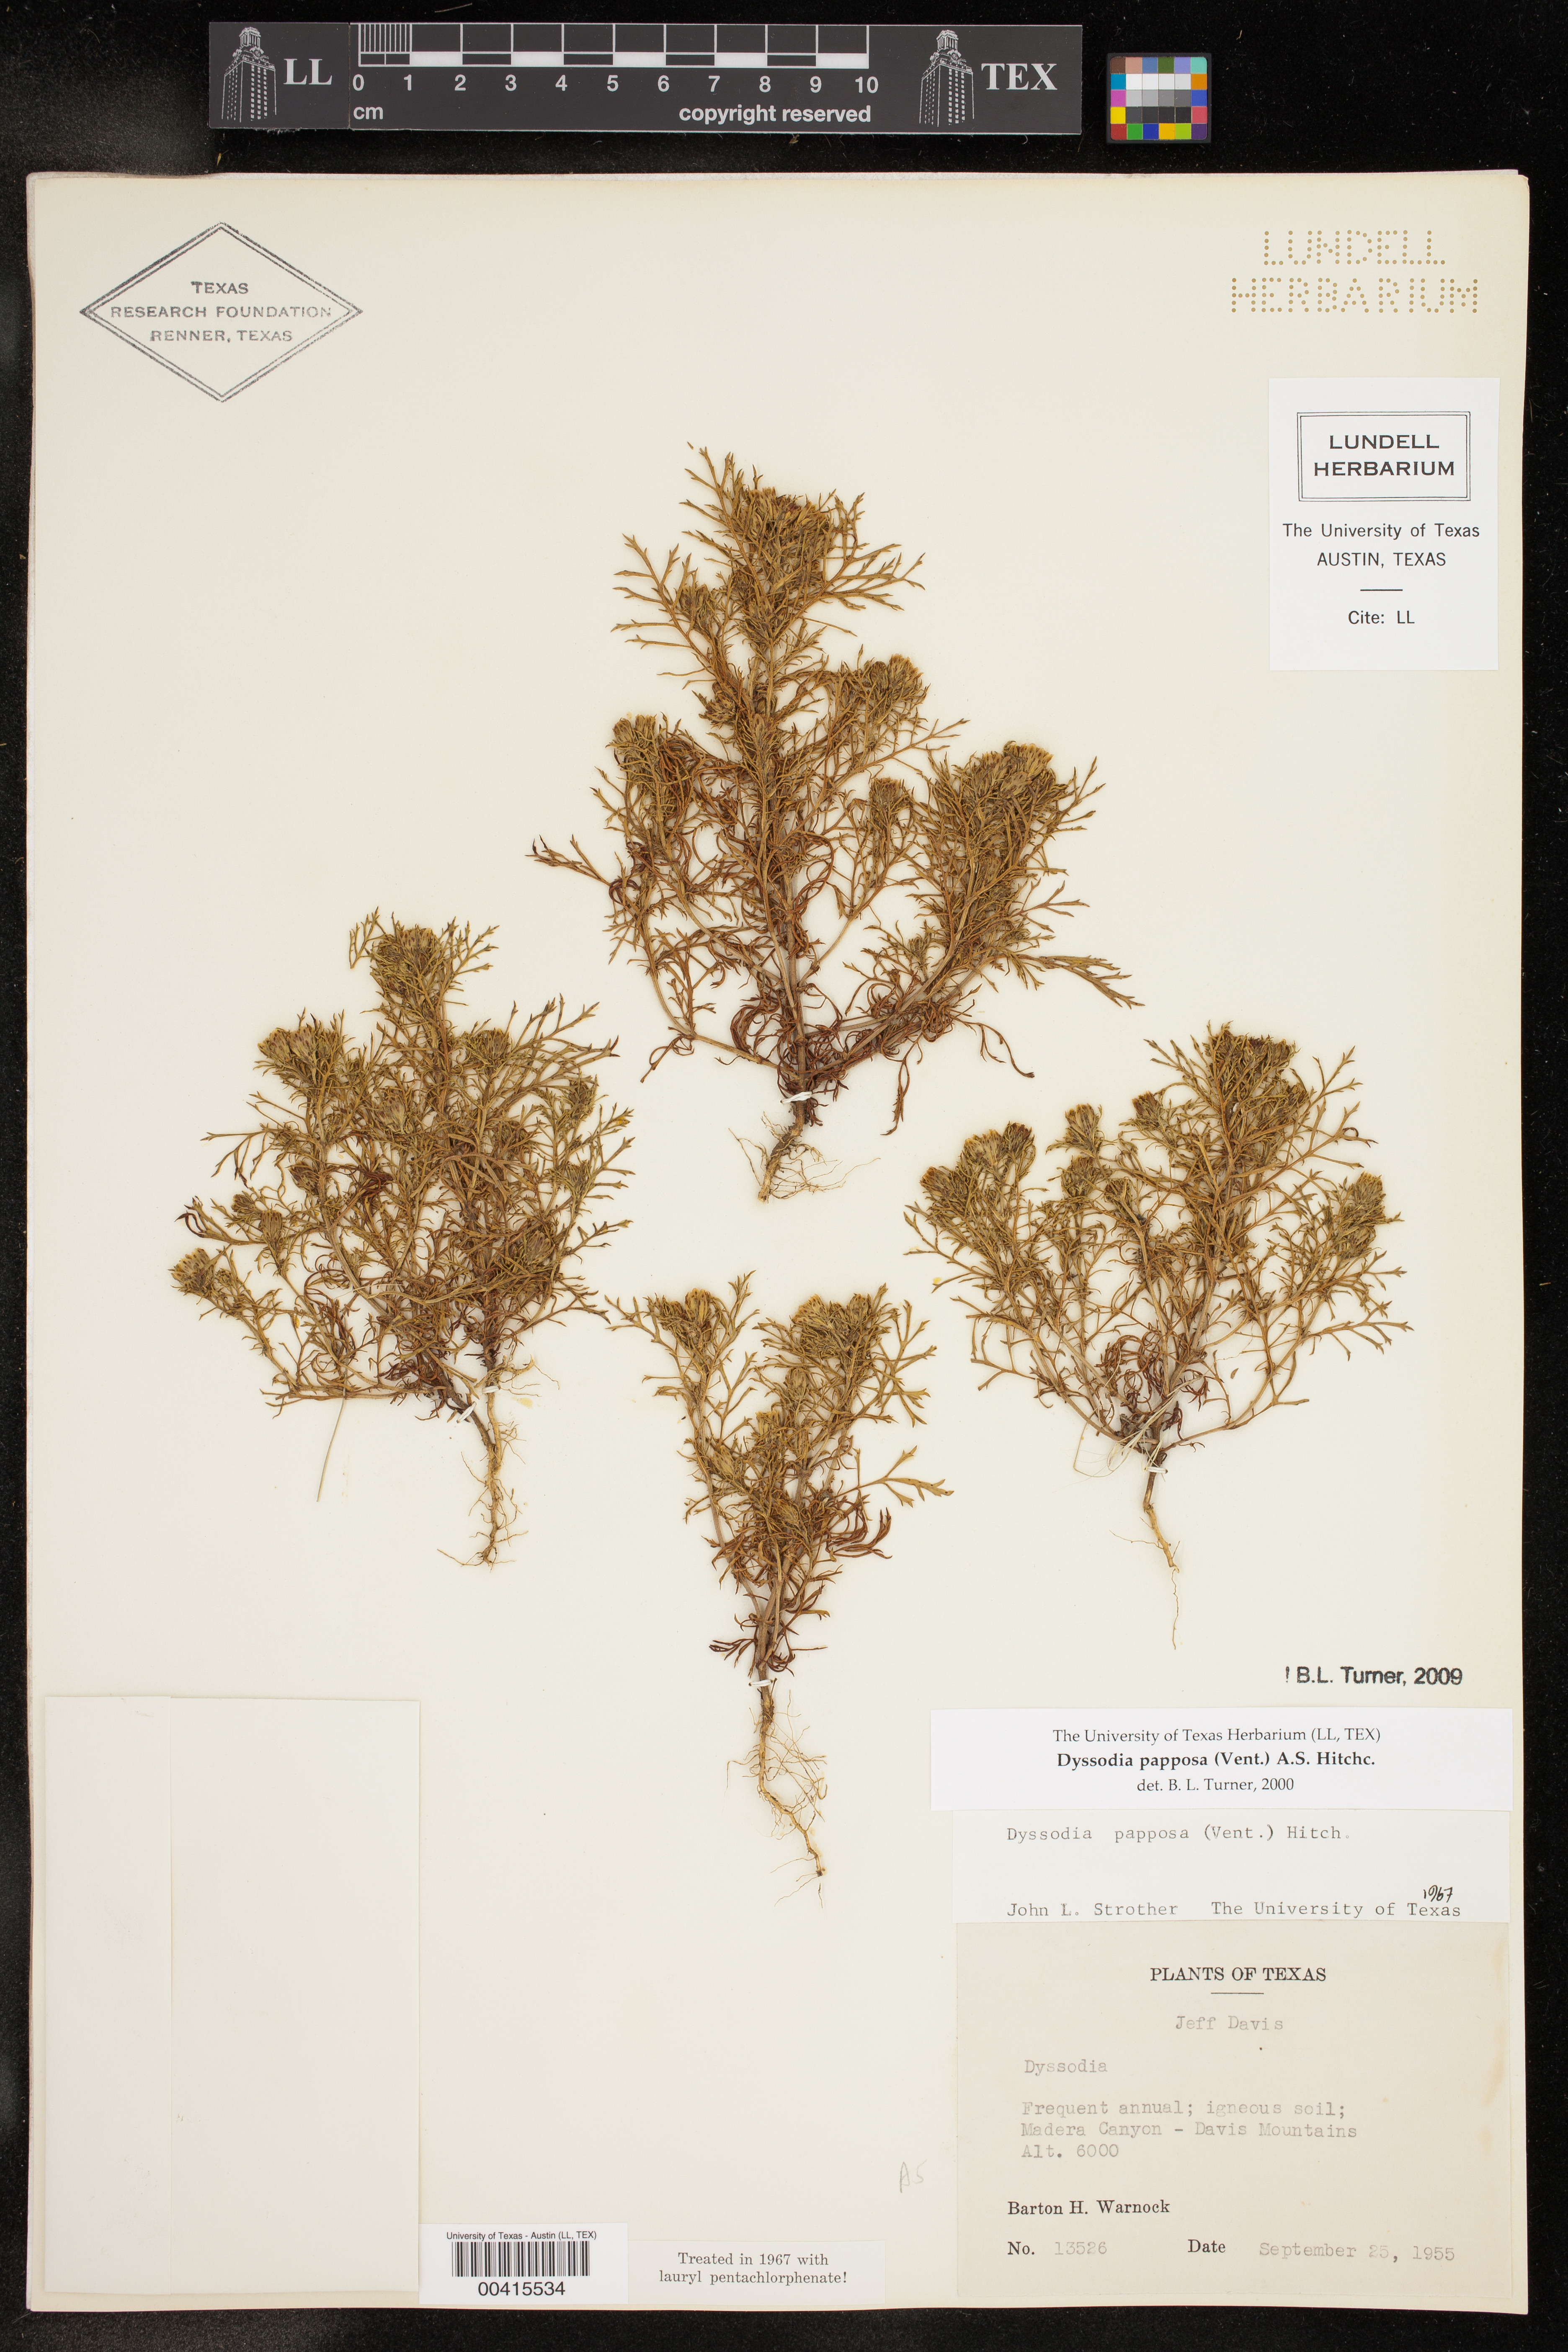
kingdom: Plantae
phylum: Tracheophyta
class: Magnoliopsida
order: Asterales
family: Asteraceae
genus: Dyssodia
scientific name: Dyssodia papposa
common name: Dogweed
